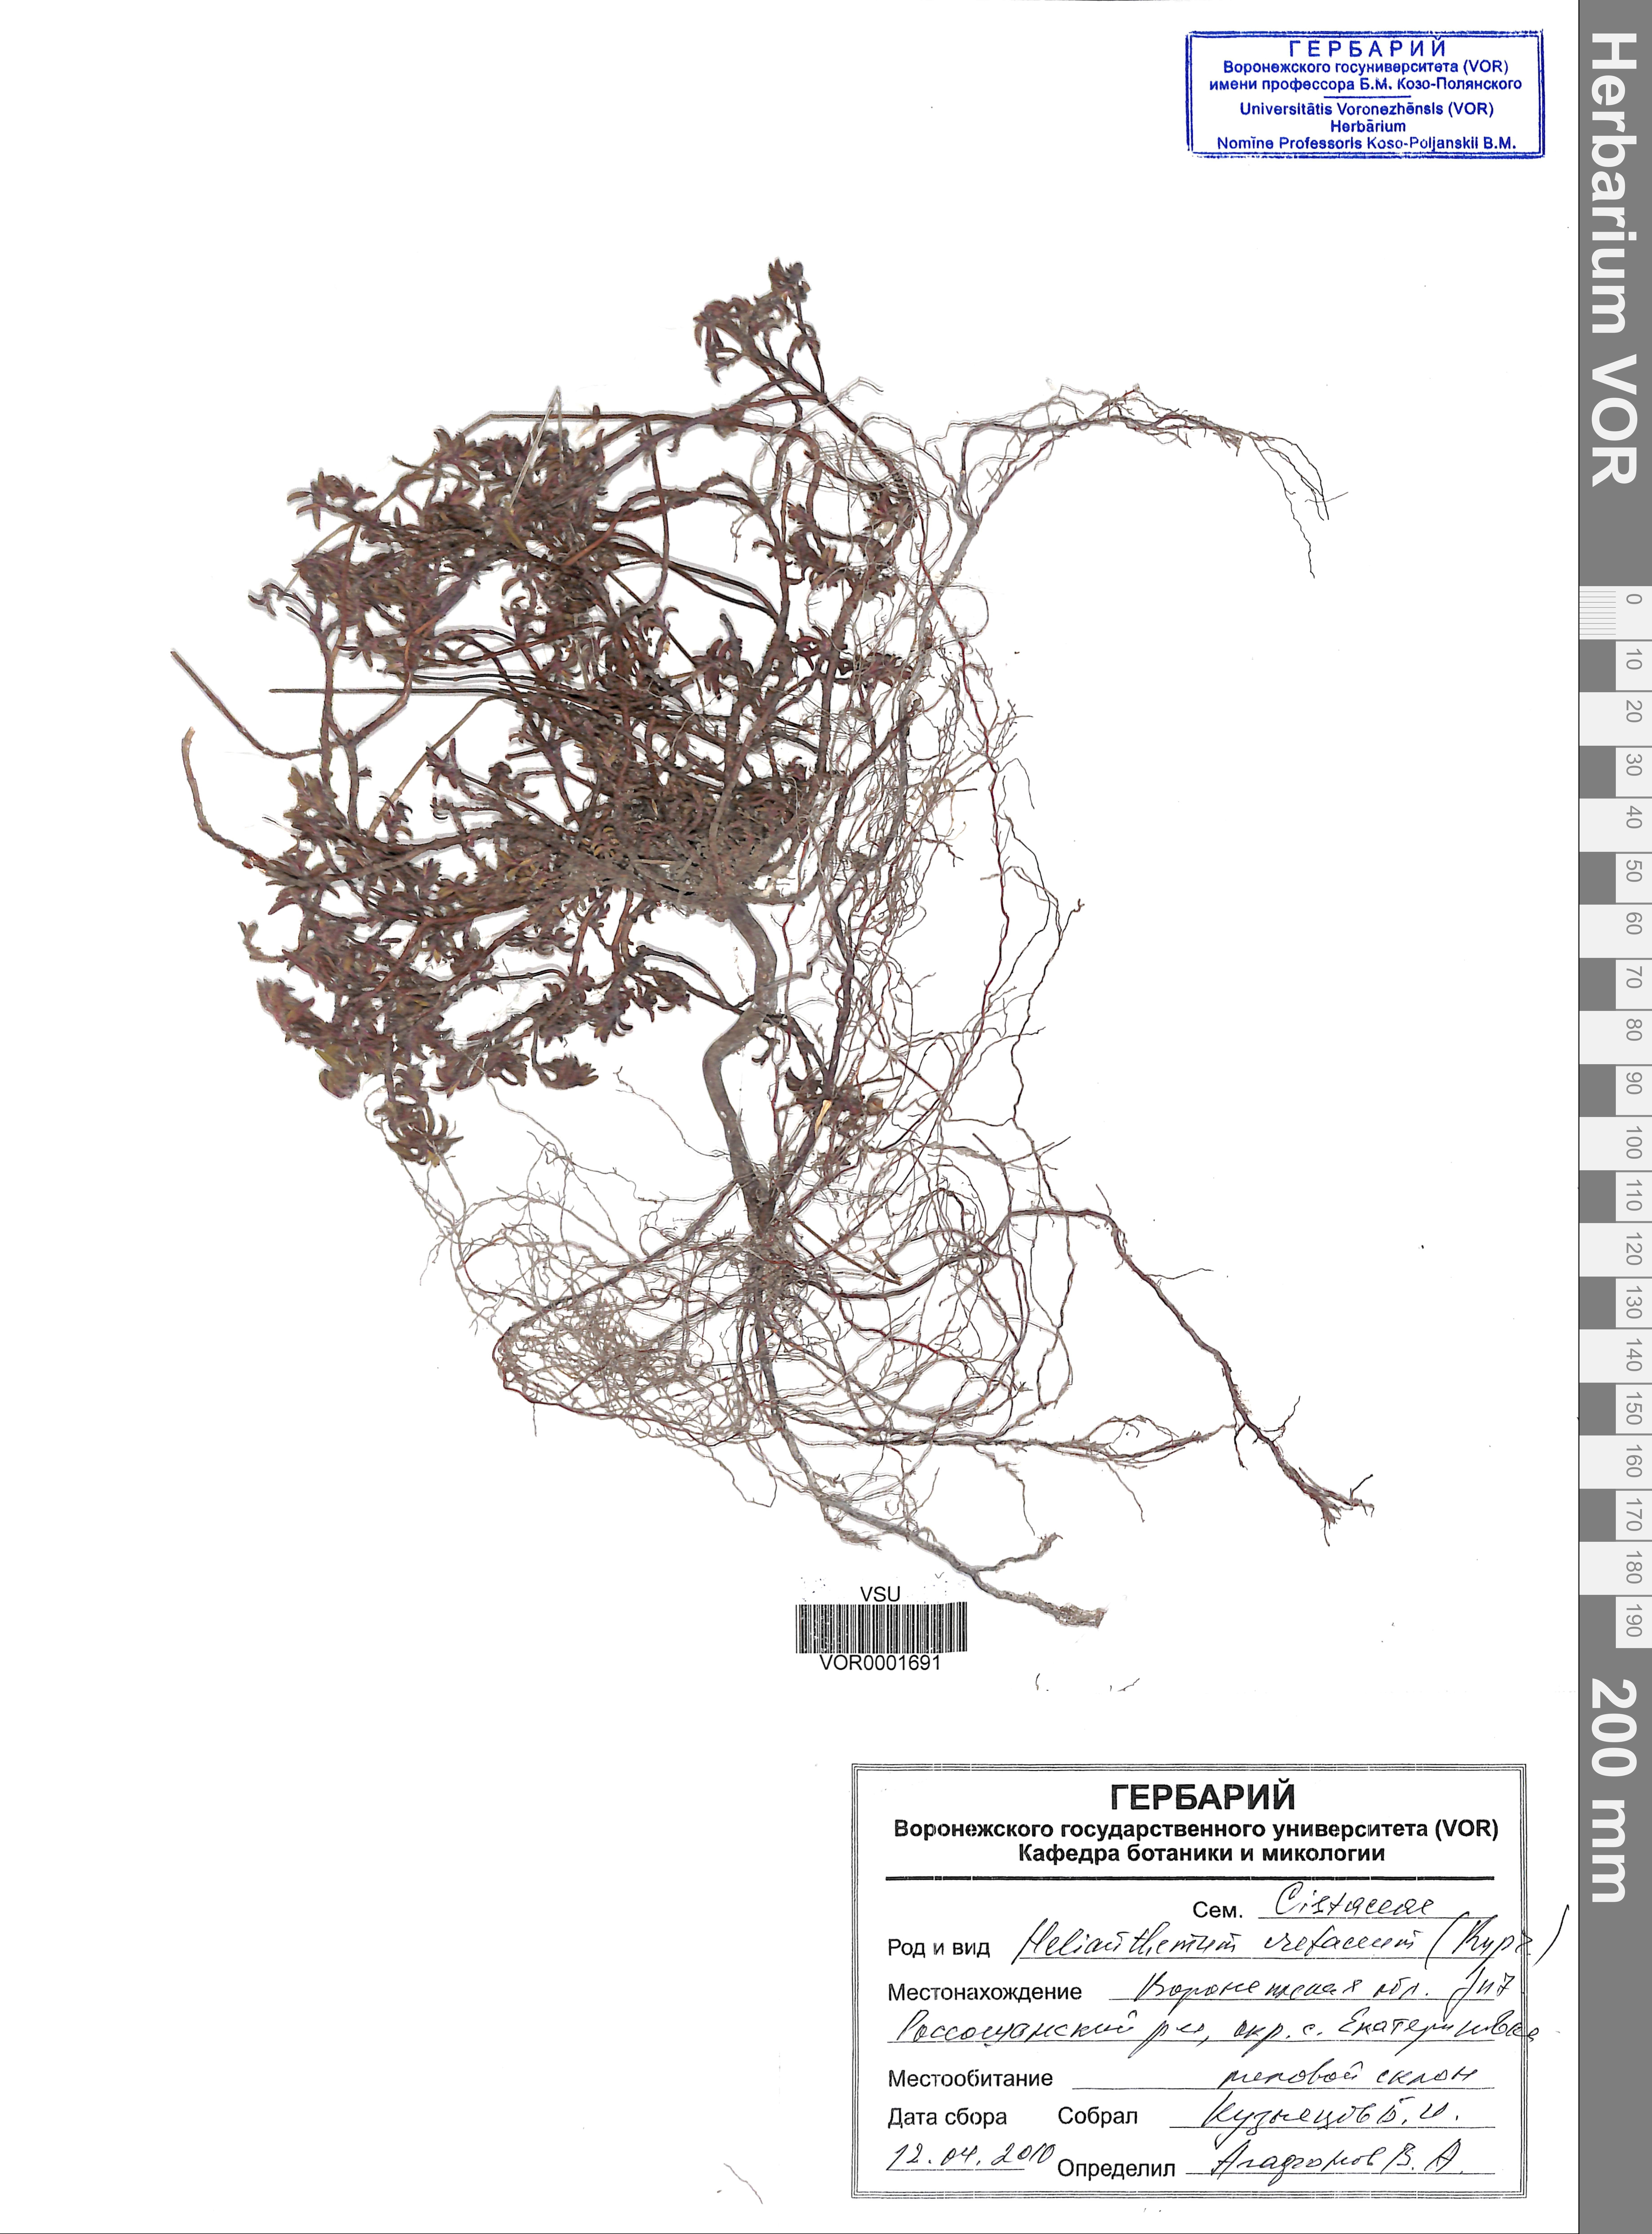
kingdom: Plantae
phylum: Tracheophyta
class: Magnoliopsida
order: Malvales
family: Cistaceae
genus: Helianthemum
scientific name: Helianthemum rupifragum
